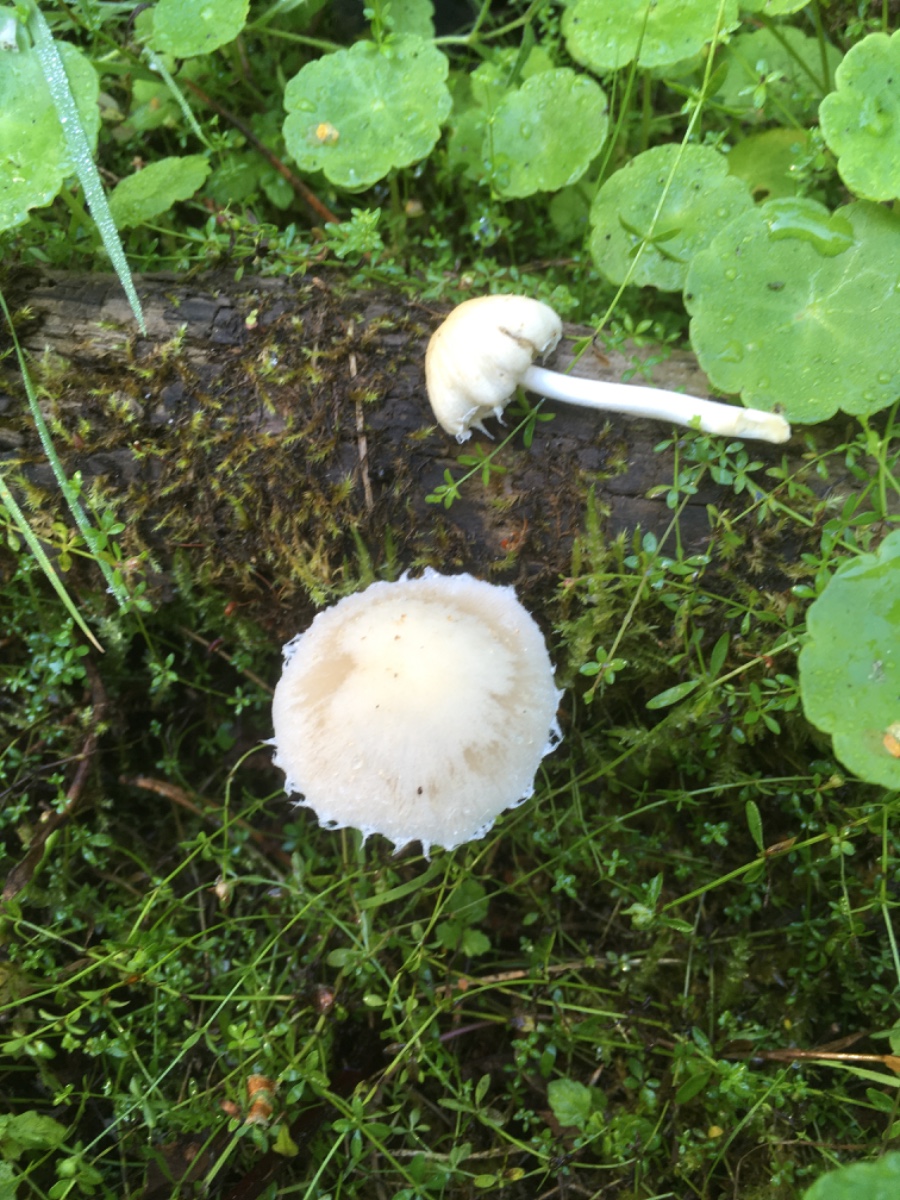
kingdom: Fungi
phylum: Basidiomycota
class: Agaricomycetes
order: Agaricales
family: Psathyrellaceae
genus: Candolleomyces
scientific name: Candolleomyces candolleanus
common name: Candolles mørkhat
